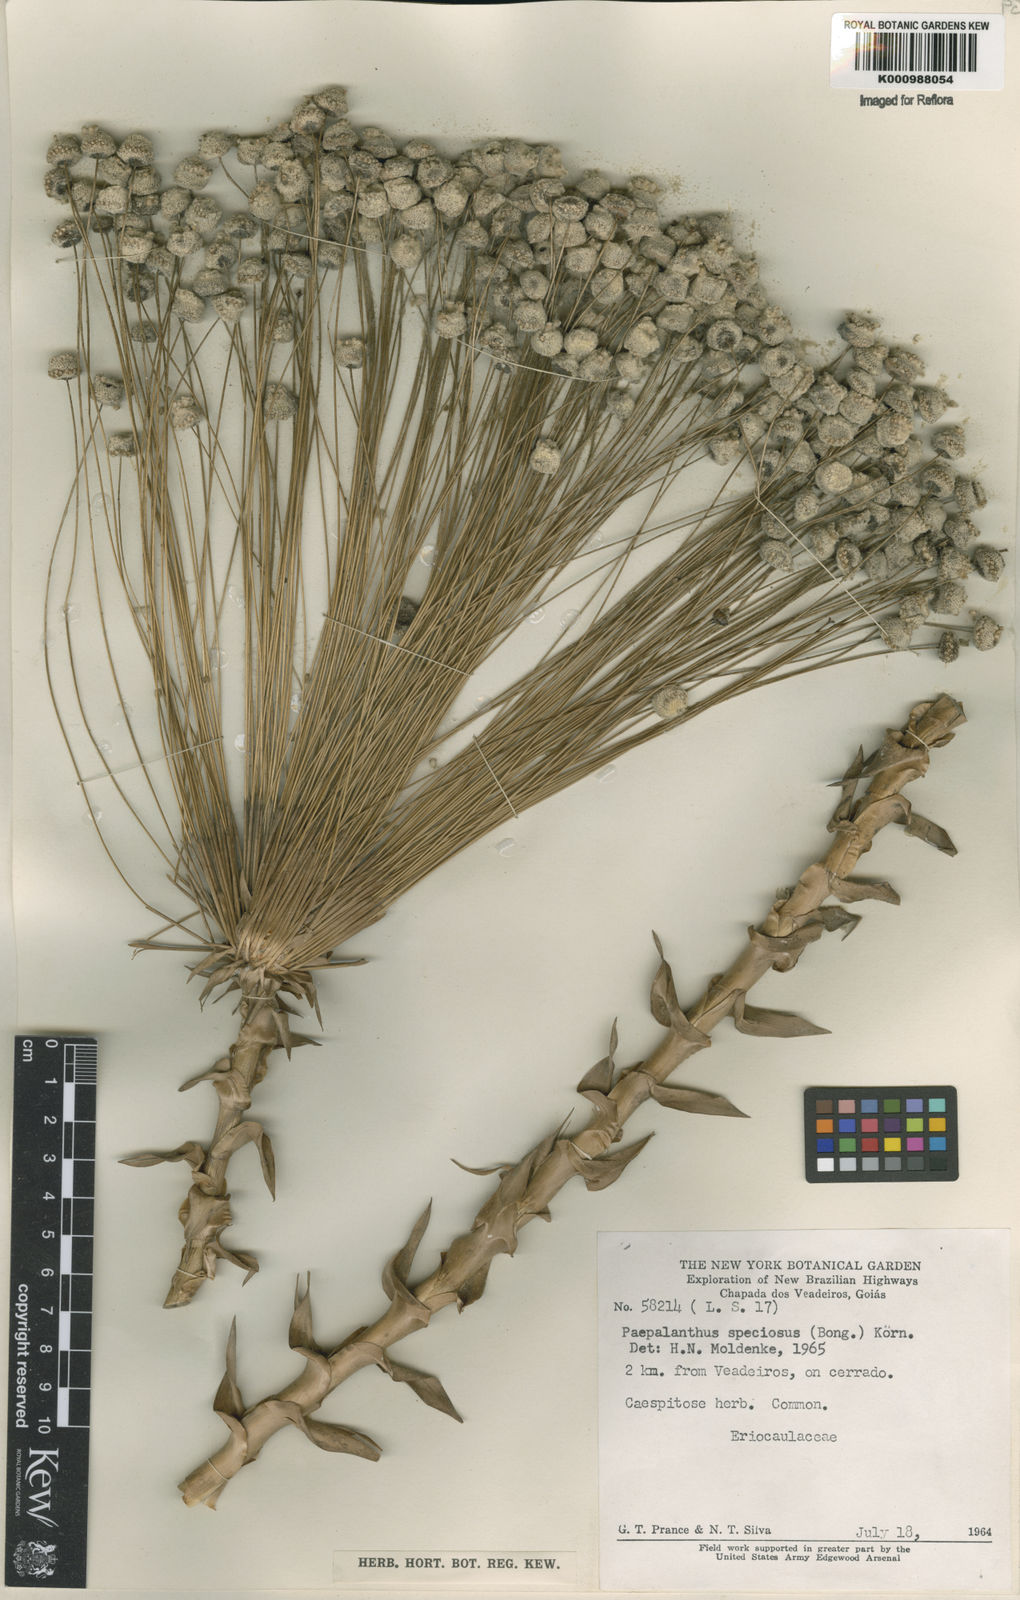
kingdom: Plantae
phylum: Tracheophyta
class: Liliopsida
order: Poales
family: Eriocaulaceae
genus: Paepalanthus
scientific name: Paepalanthus
